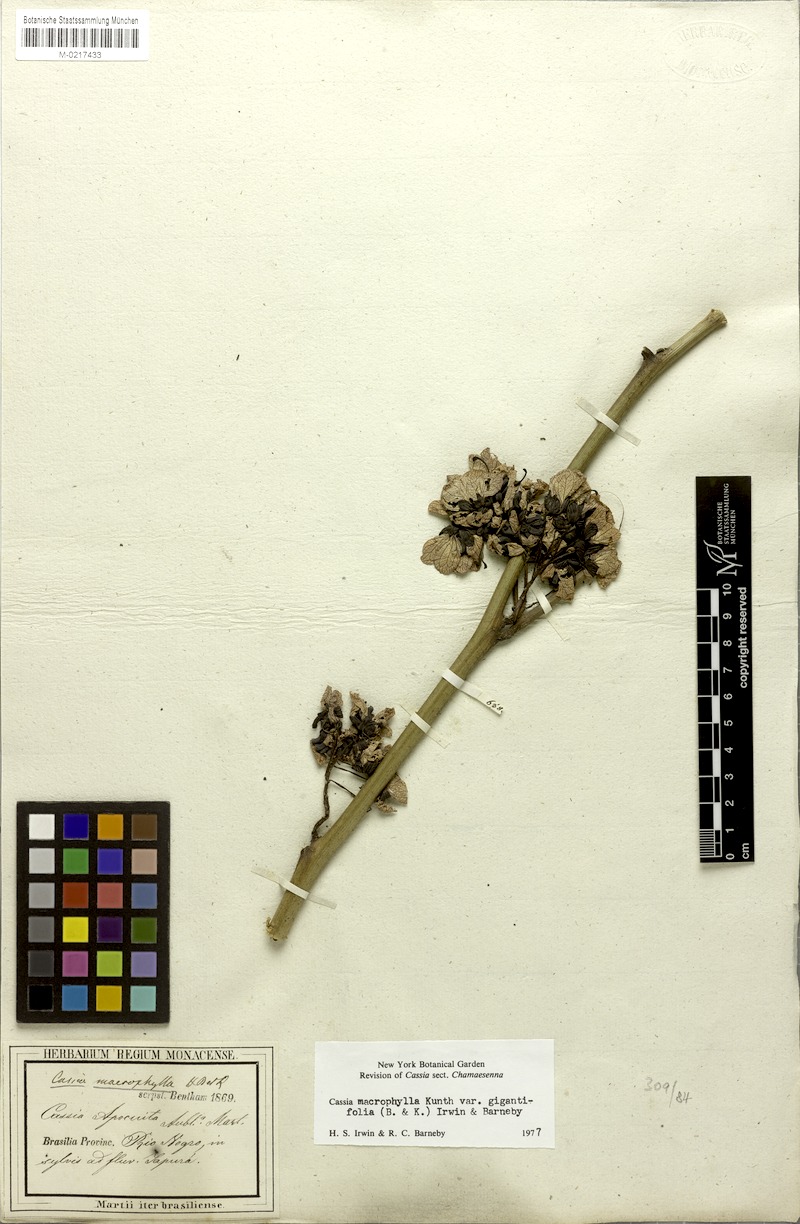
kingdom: Plantae
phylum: Tracheophyta
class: Magnoliopsida
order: Fabales
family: Fabaceae
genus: Senna
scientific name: Senna macrophylla
